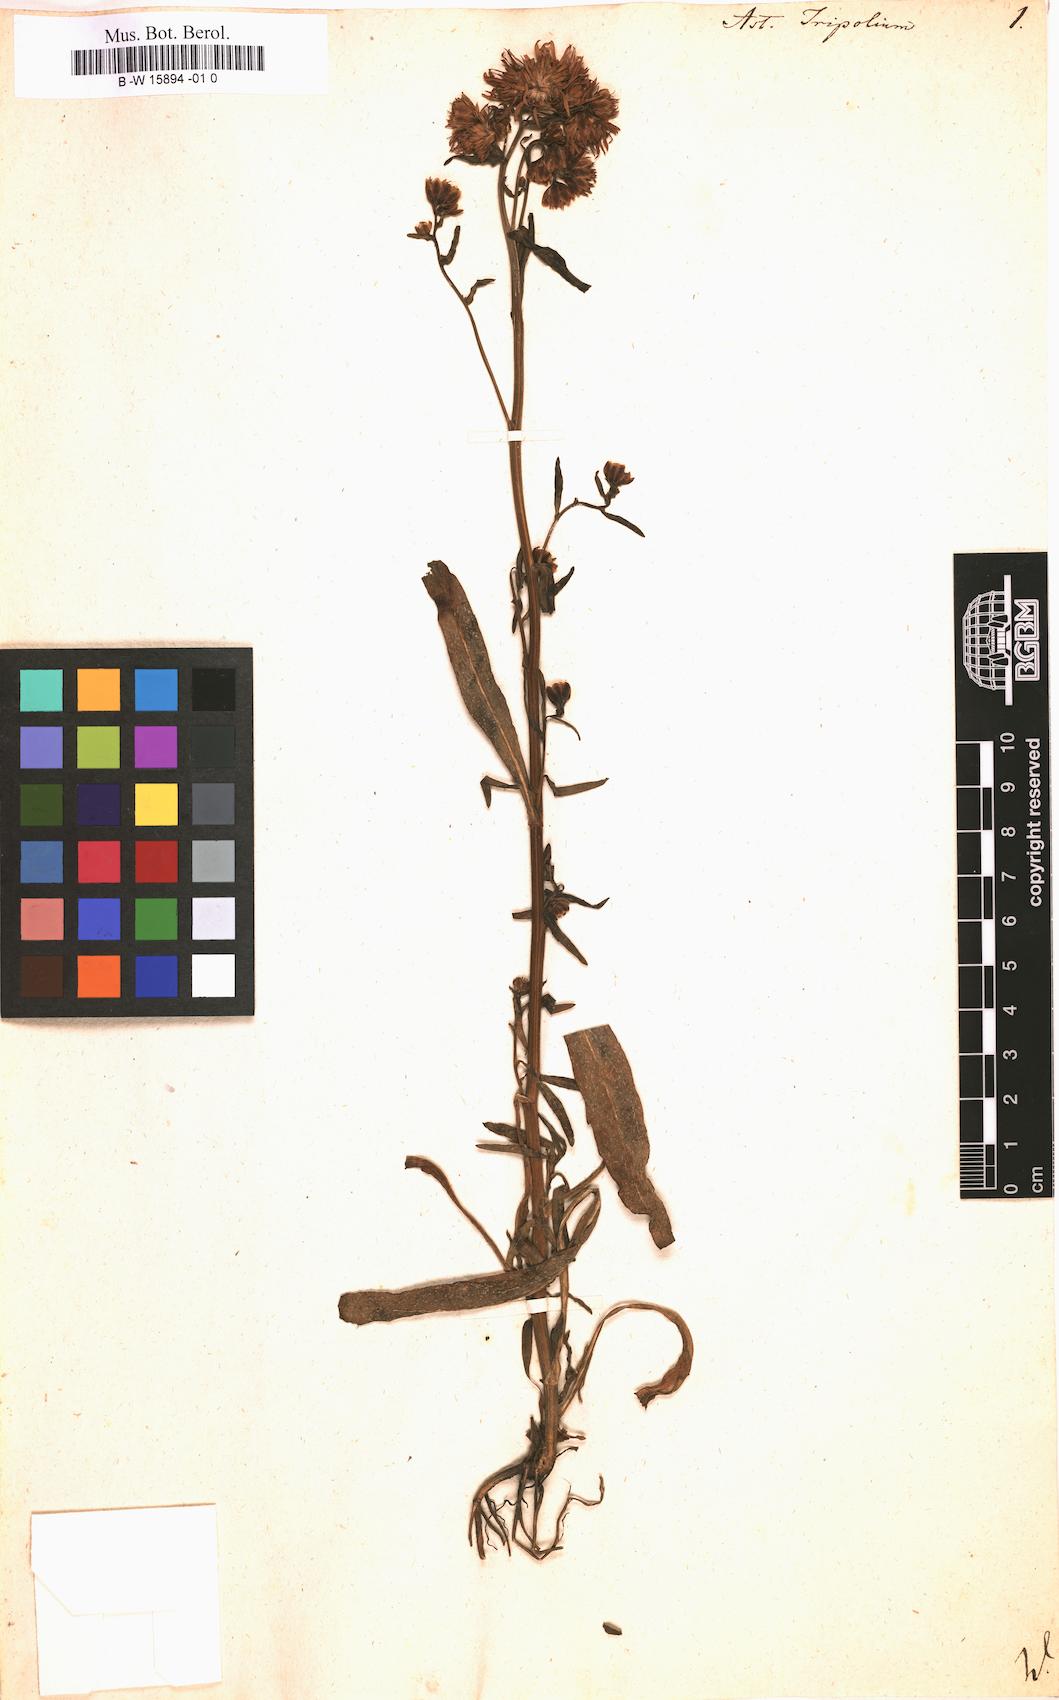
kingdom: Plantae
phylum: Tracheophyta
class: Magnoliopsida
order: Asterales
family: Asteraceae
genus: Tripolium
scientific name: Tripolium pannonicum
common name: Sea aster
